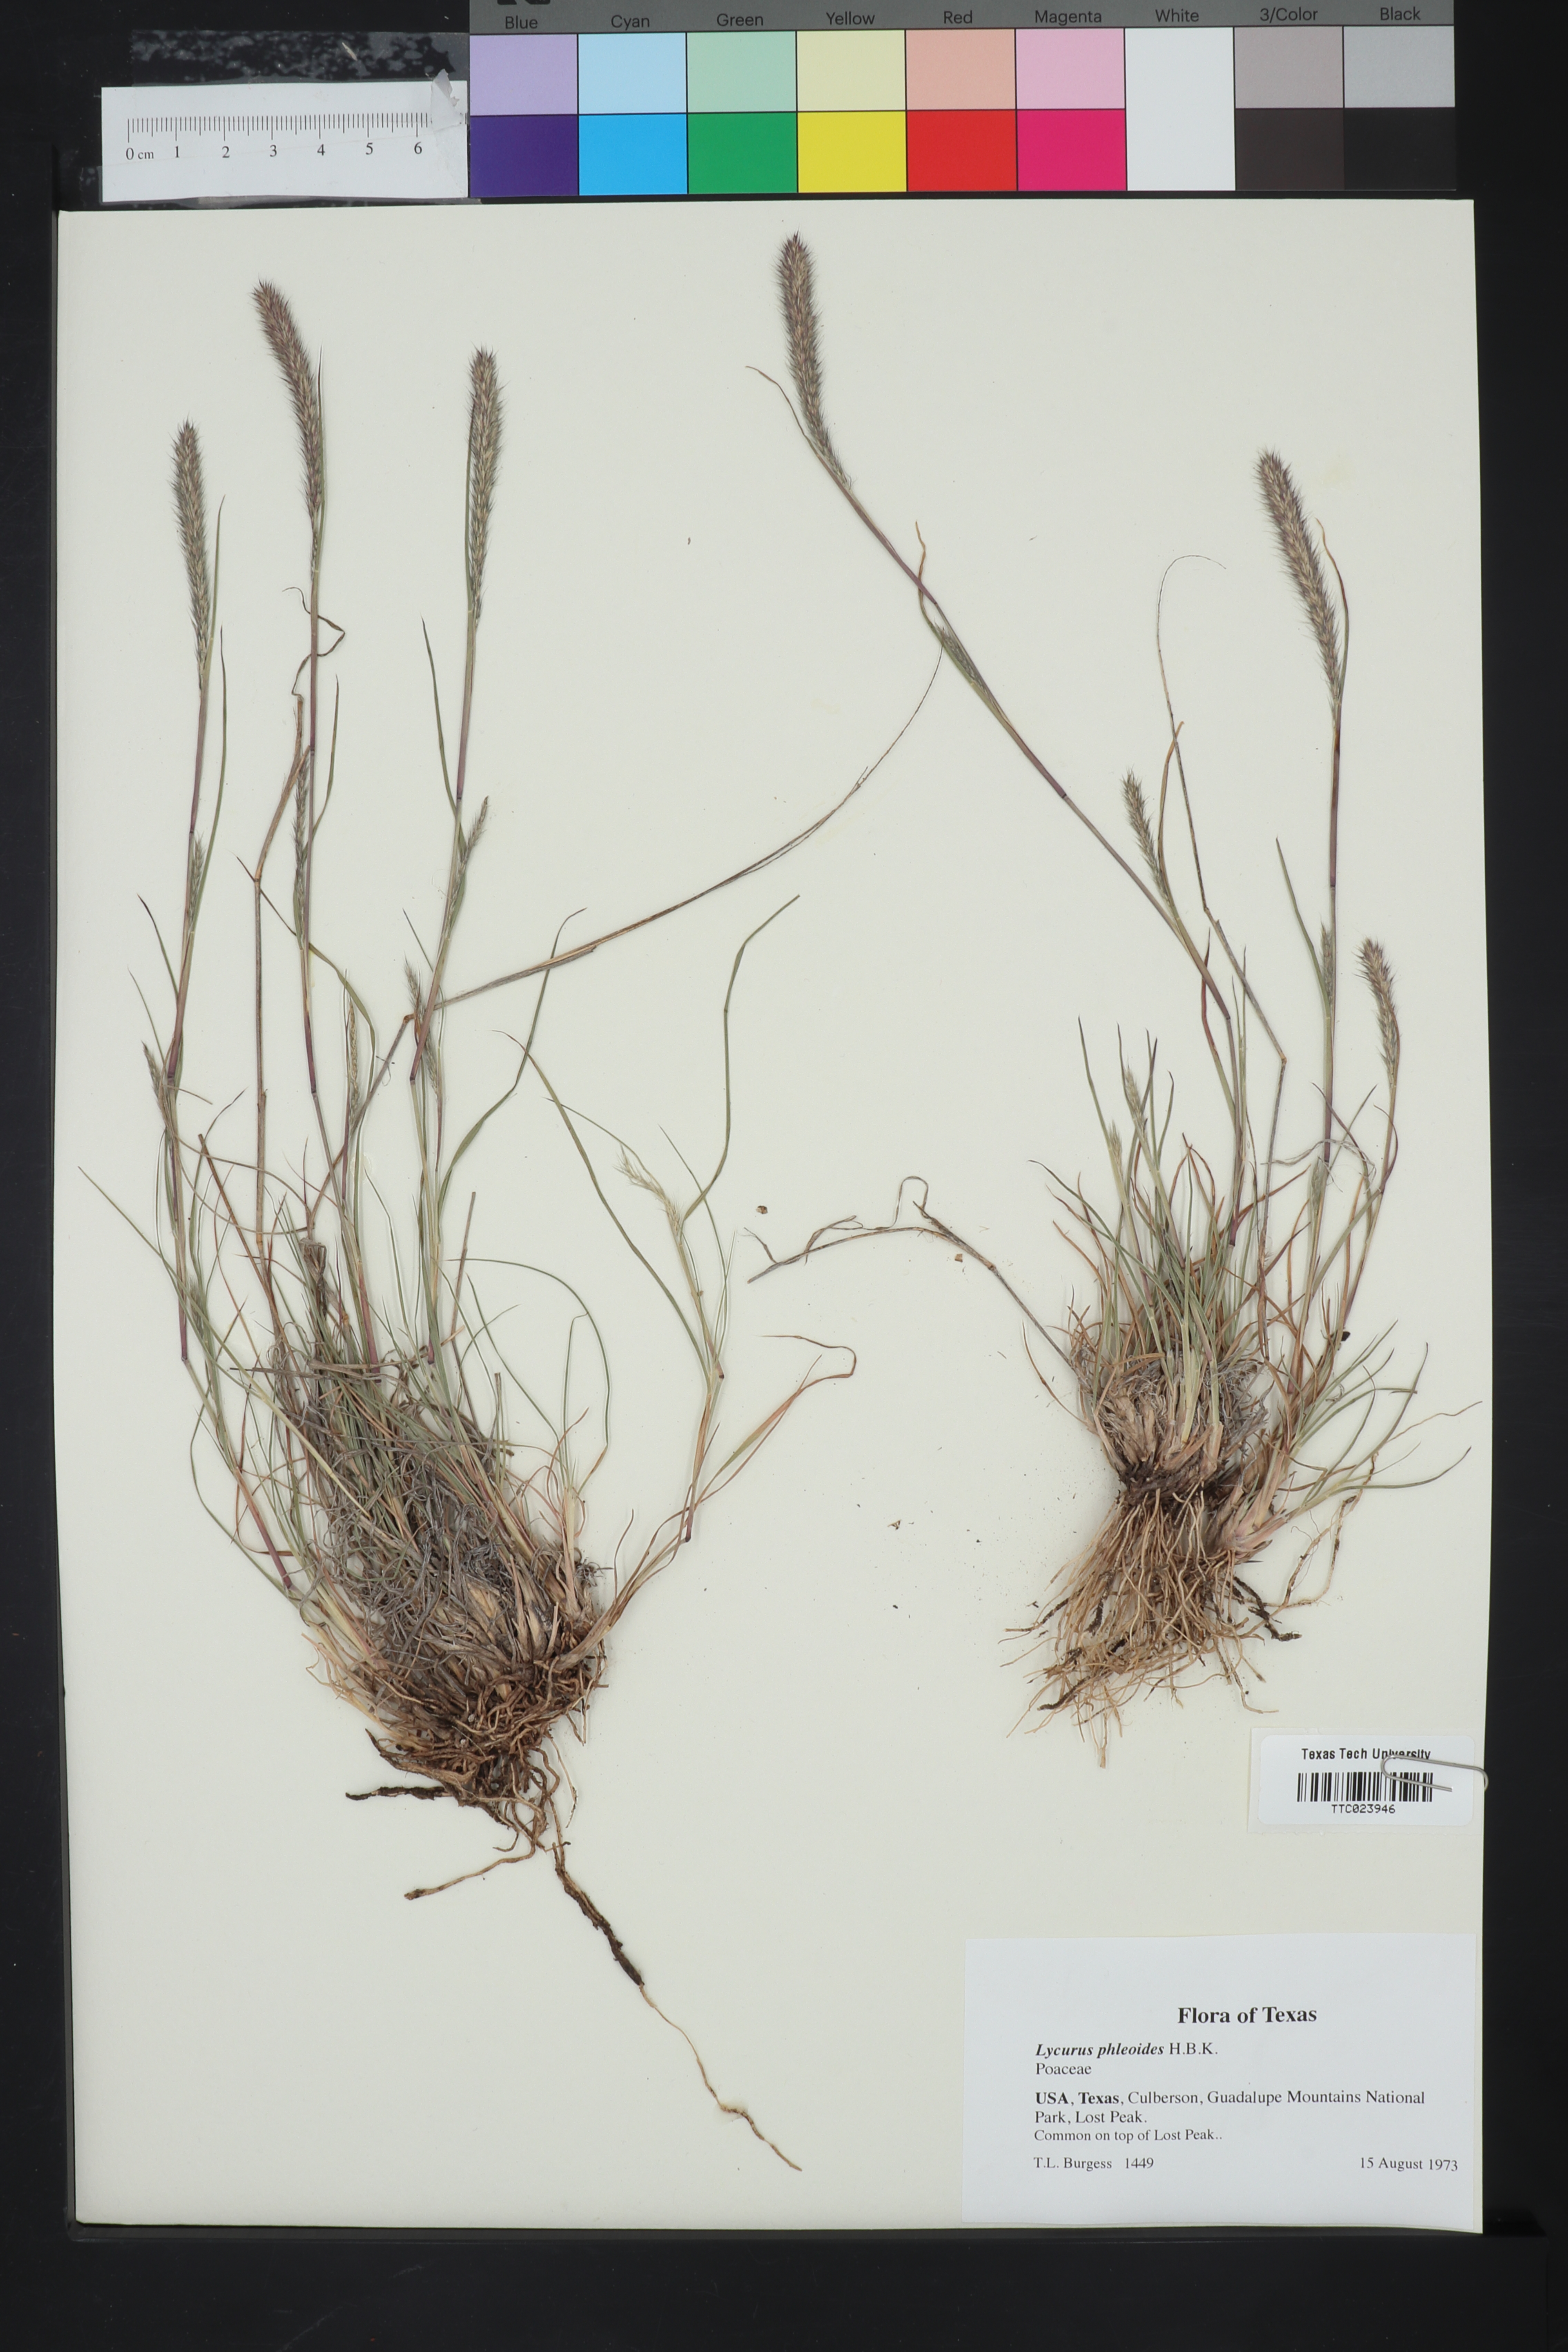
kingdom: Plantae
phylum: Tracheophyta
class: Liliopsida
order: Poales
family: Poaceae
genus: Muhlenbergia
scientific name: Muhlenbergia phleoides
